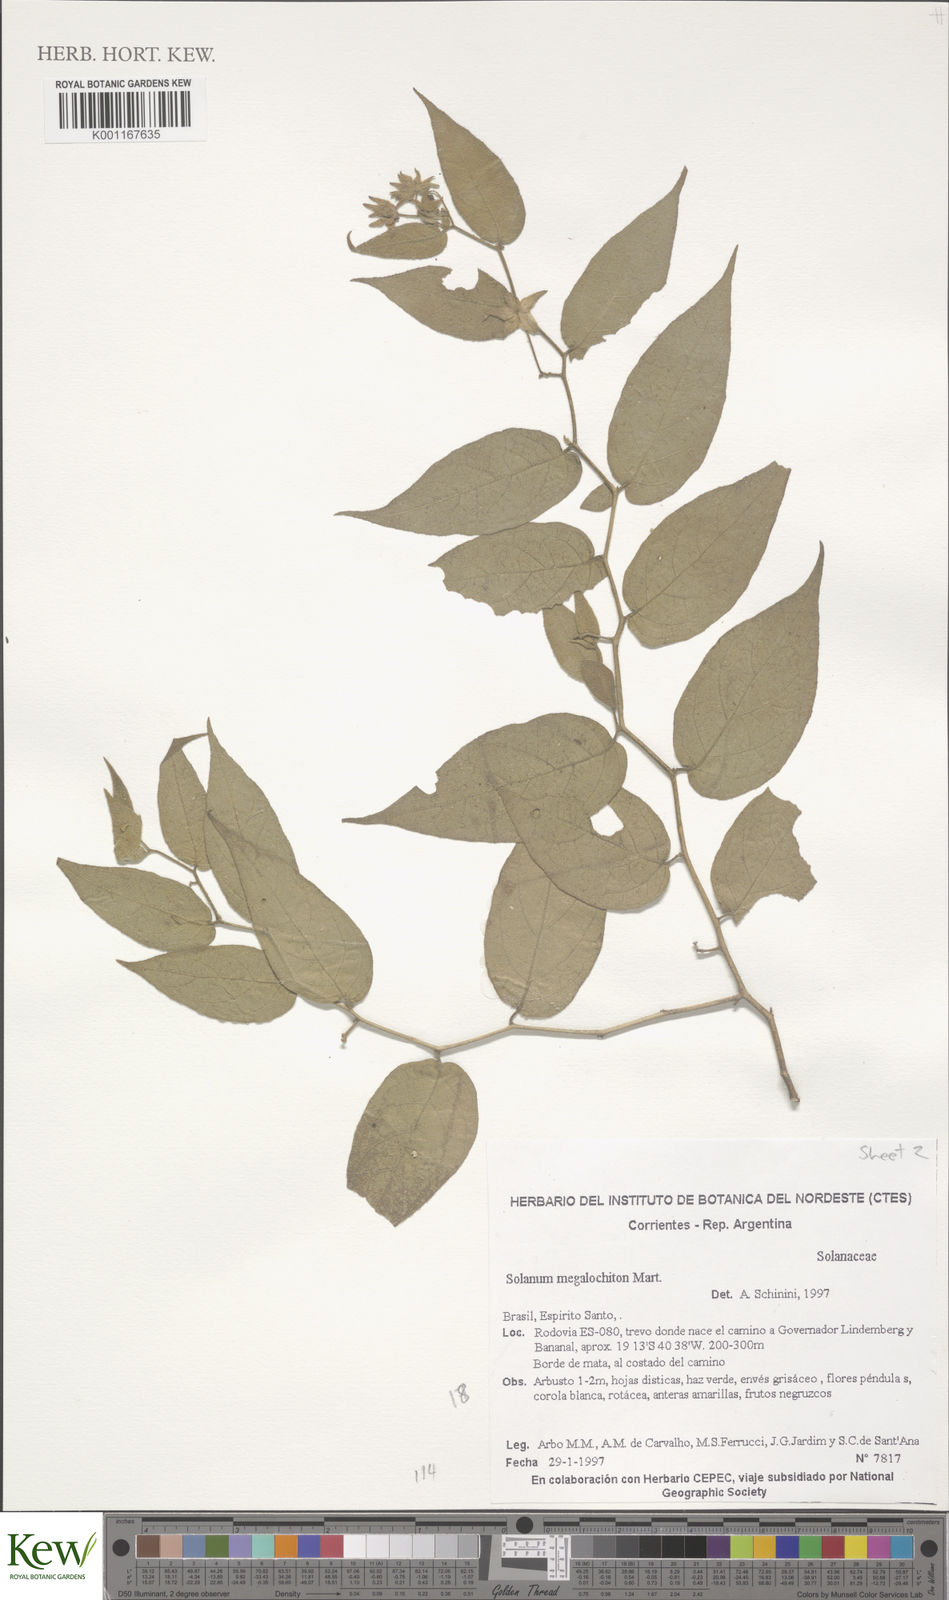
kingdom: Plantae
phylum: Tracheophyta
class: Magnoliopsida
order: Solanales
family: Solanaceae
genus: Solanum
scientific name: Solanum megalochiton
